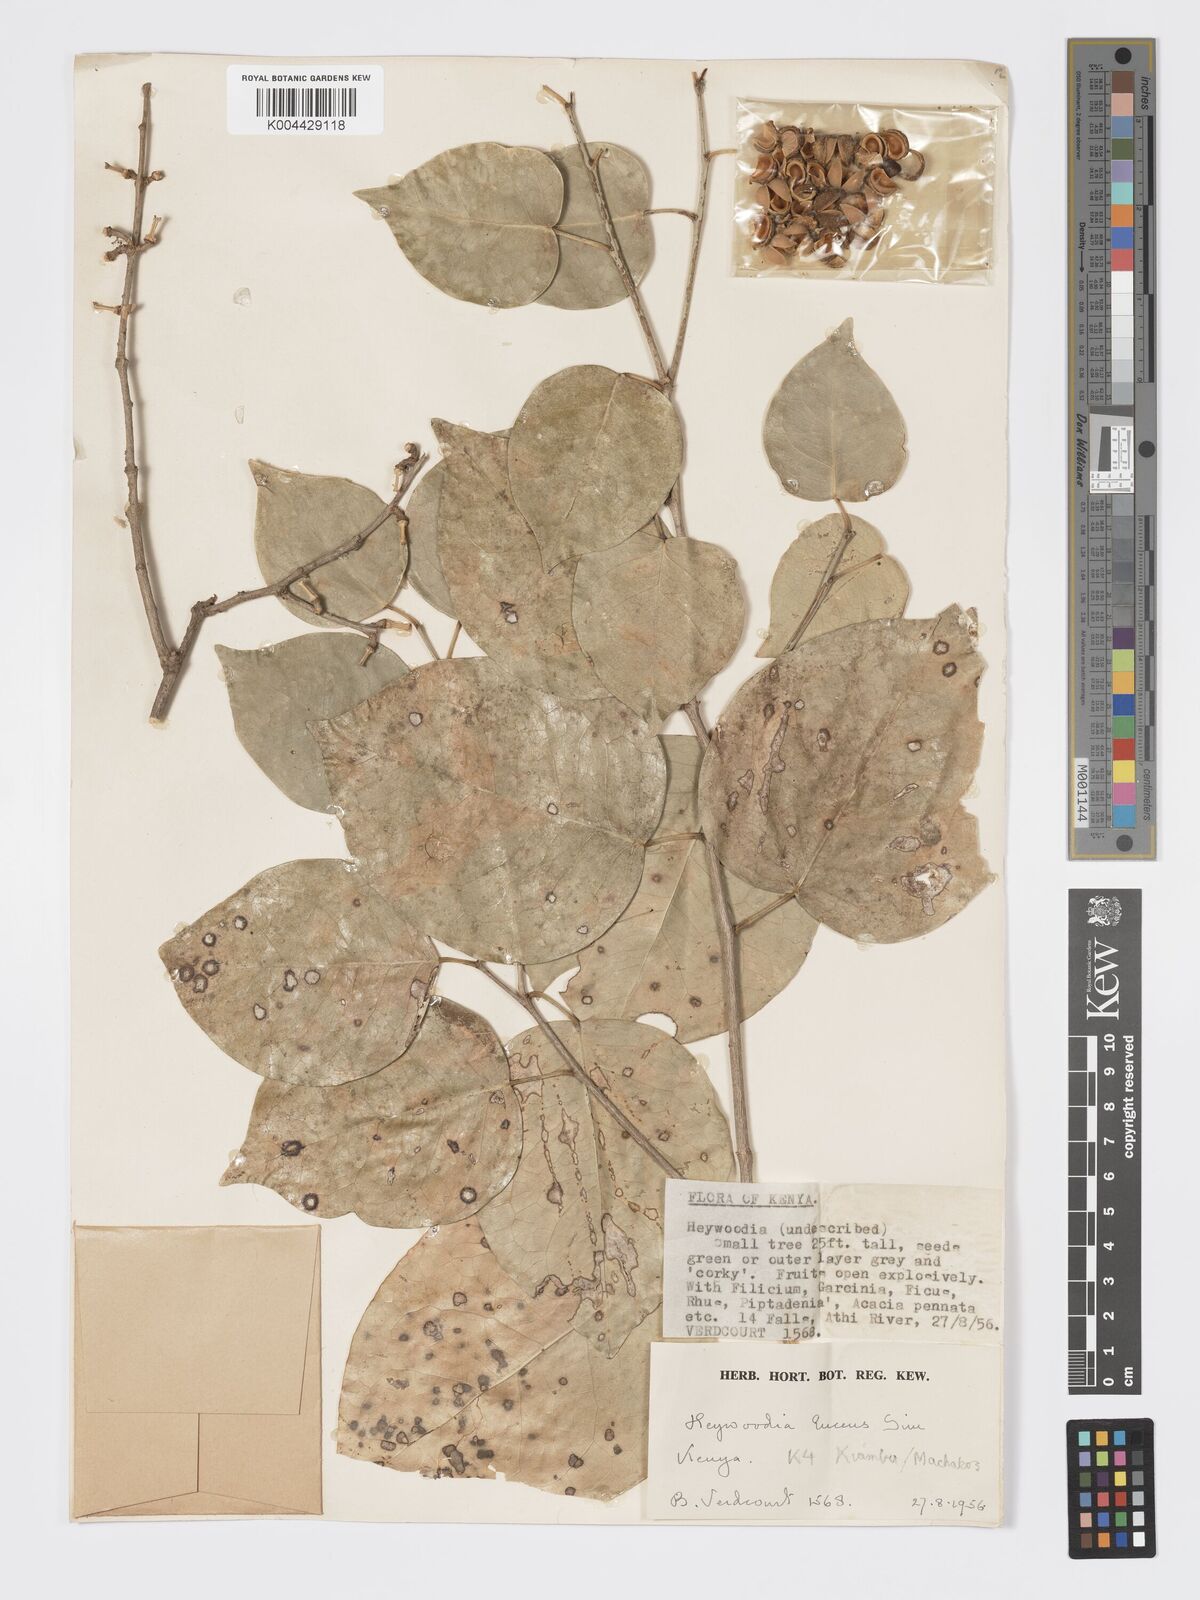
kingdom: Plantae
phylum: Tracheophyta
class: Magnoliopsida
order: Malpighiales
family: Phyllanthaceae
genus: Heywoodia
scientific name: Heywoodia lucens
